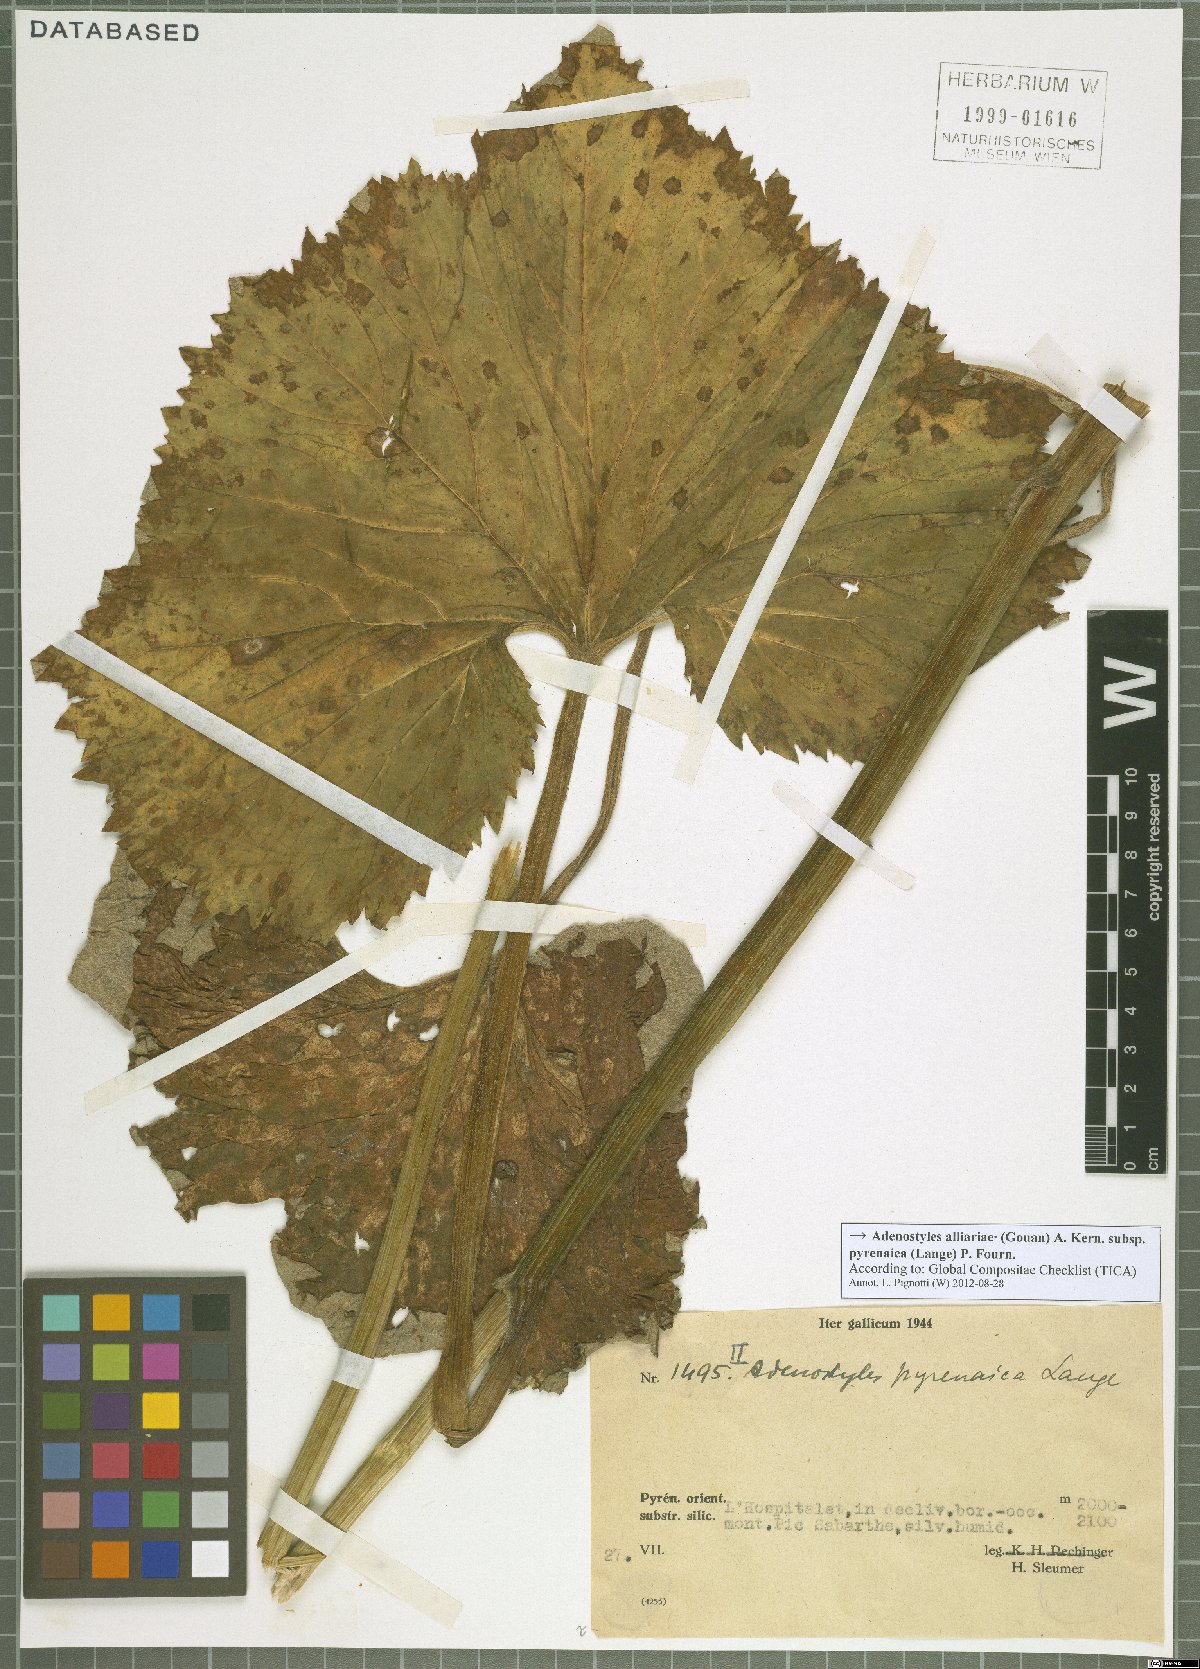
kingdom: Plantae
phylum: Tracheophyta
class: Magnoliopsida
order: Asterales
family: Asteraceae
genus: Adenostyles
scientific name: Adenostyles alpina
